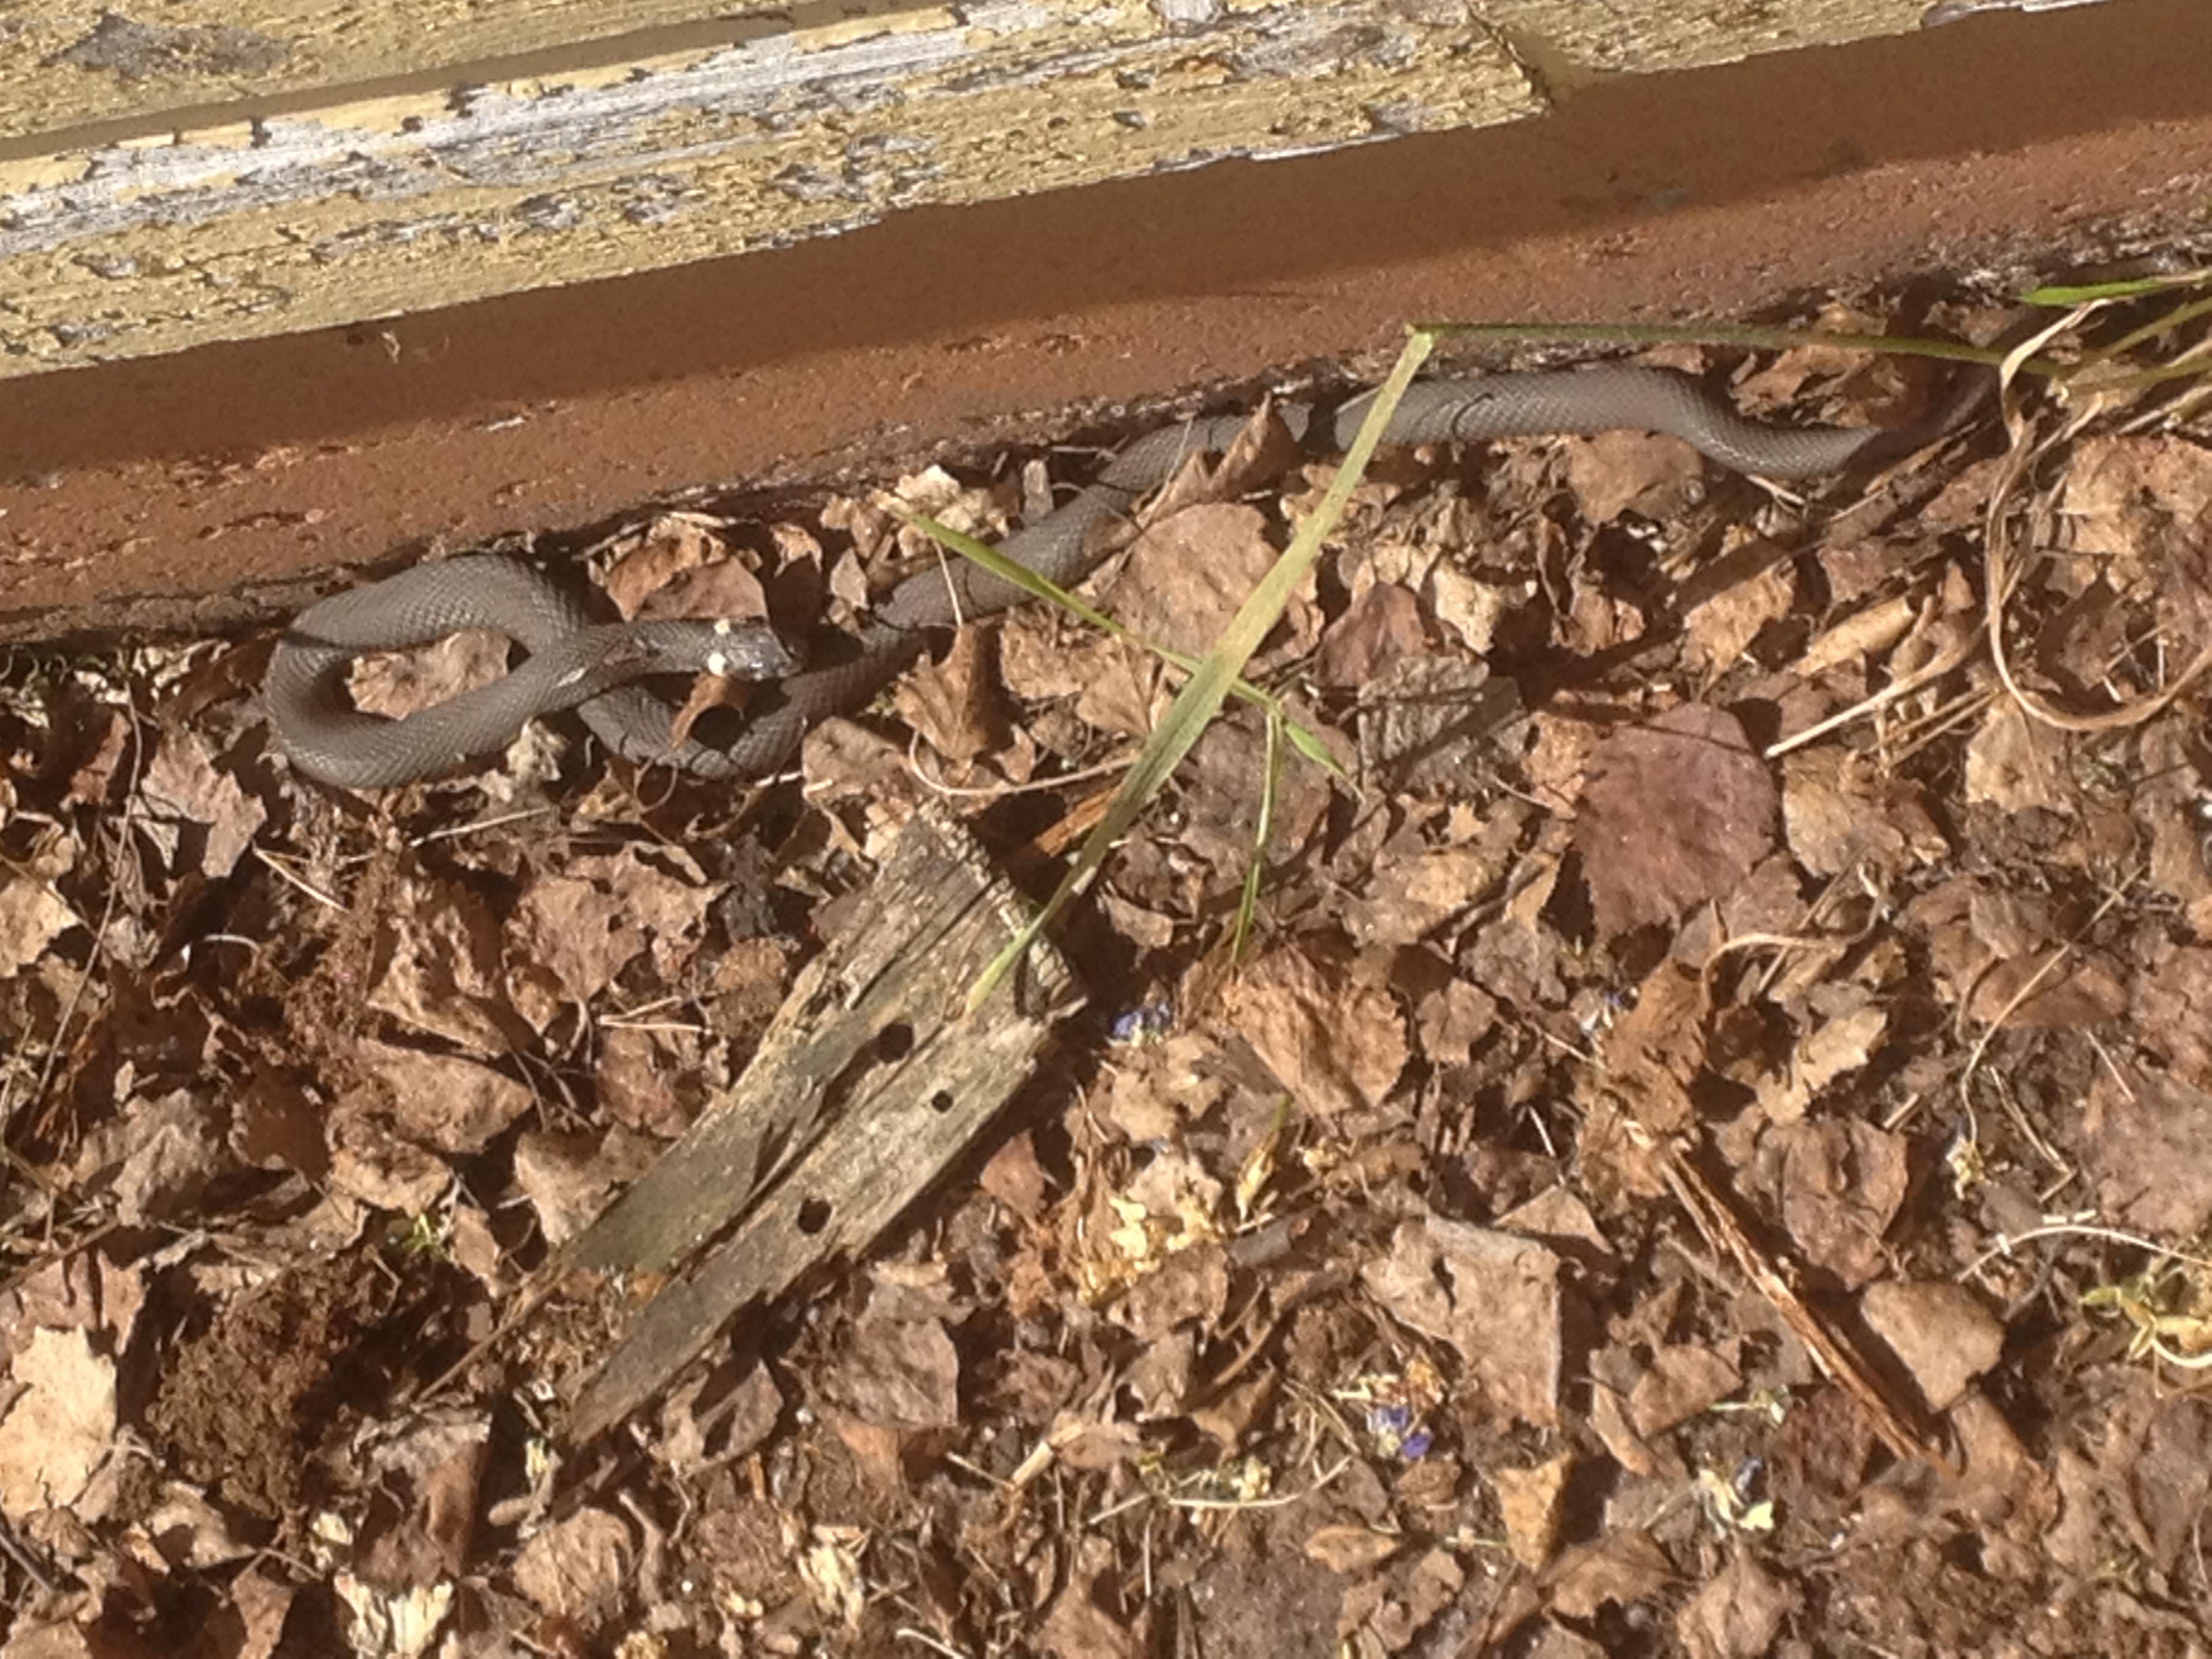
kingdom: Animalia
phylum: Chordata
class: Squamata
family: Colubridae
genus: Natrix
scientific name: Natrix natrix
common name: Grass snake
